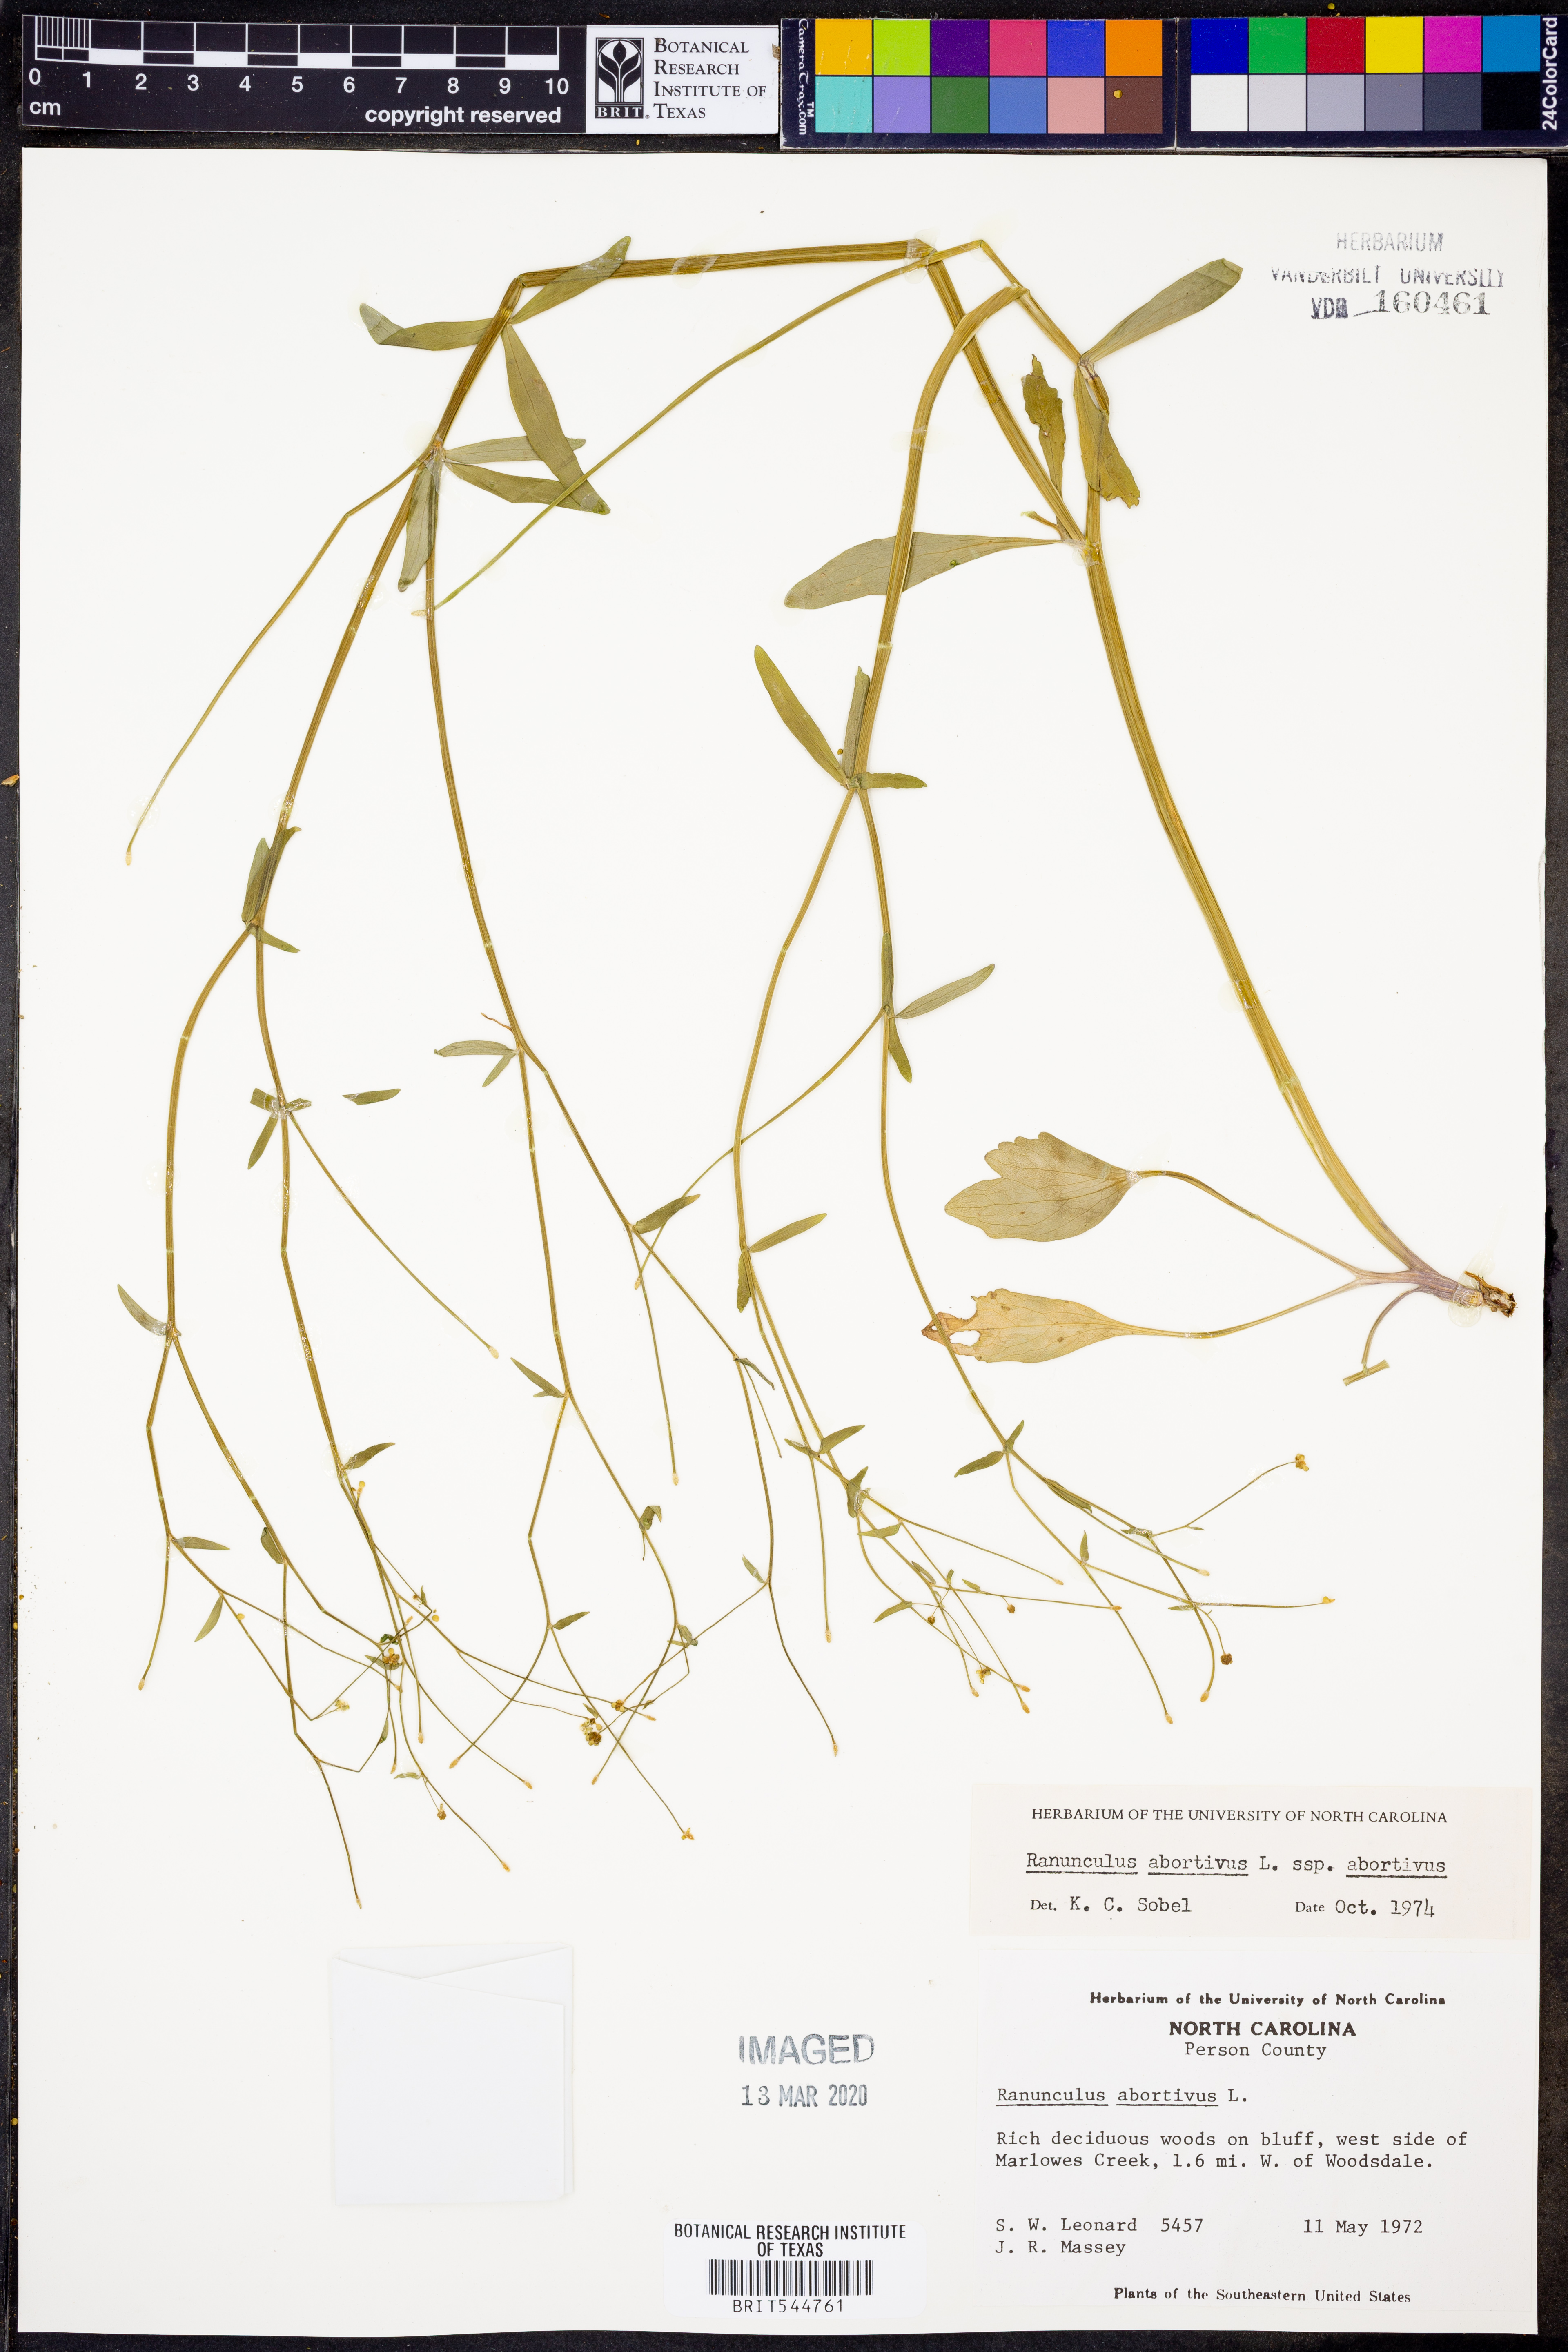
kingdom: Plantae
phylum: Tracheophyta
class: Magnoliopsida
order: Ranunculales
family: Ranunculaceae
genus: Ranunculus
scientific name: Ranunculus abortivus
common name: Early wood buttercup
